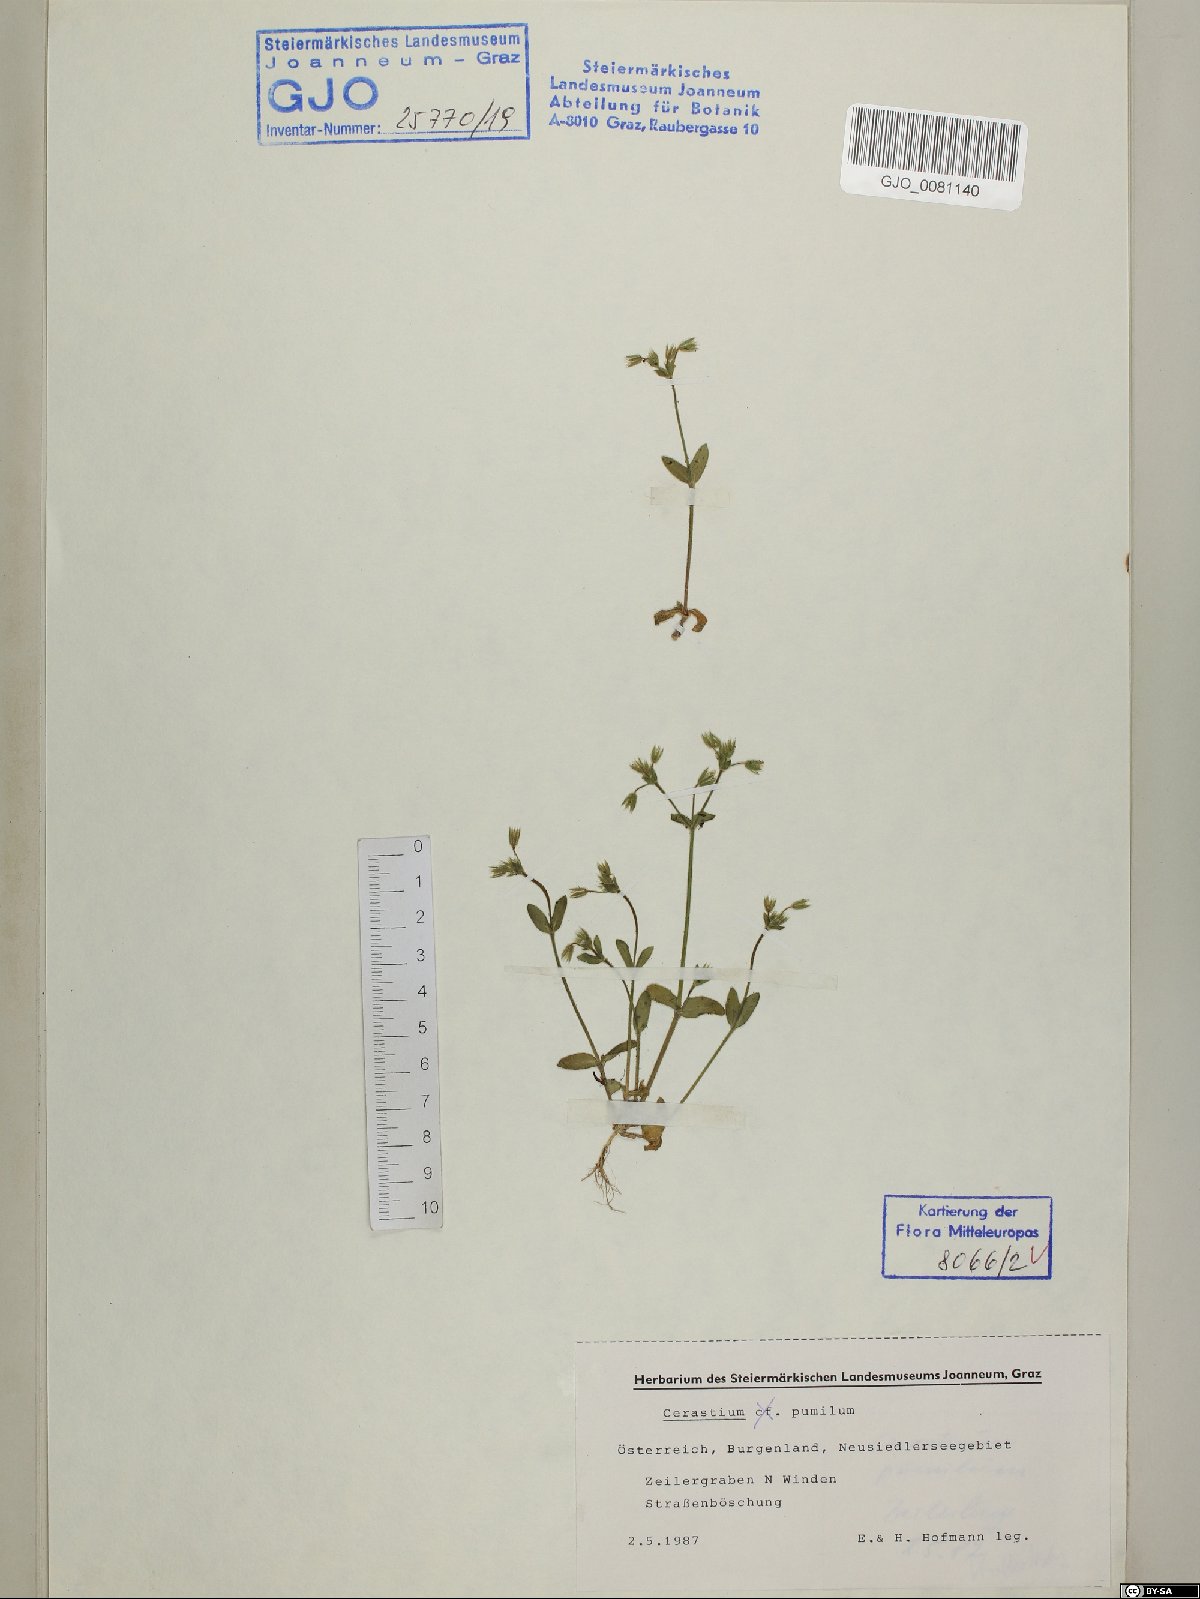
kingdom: Plantae
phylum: Tracheophyta
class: Magnoliopsida
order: Caryophyllales
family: Caryophyllaceae
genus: Cerastium
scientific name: Cerastium pumilum
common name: Dwarf mouse-ear
